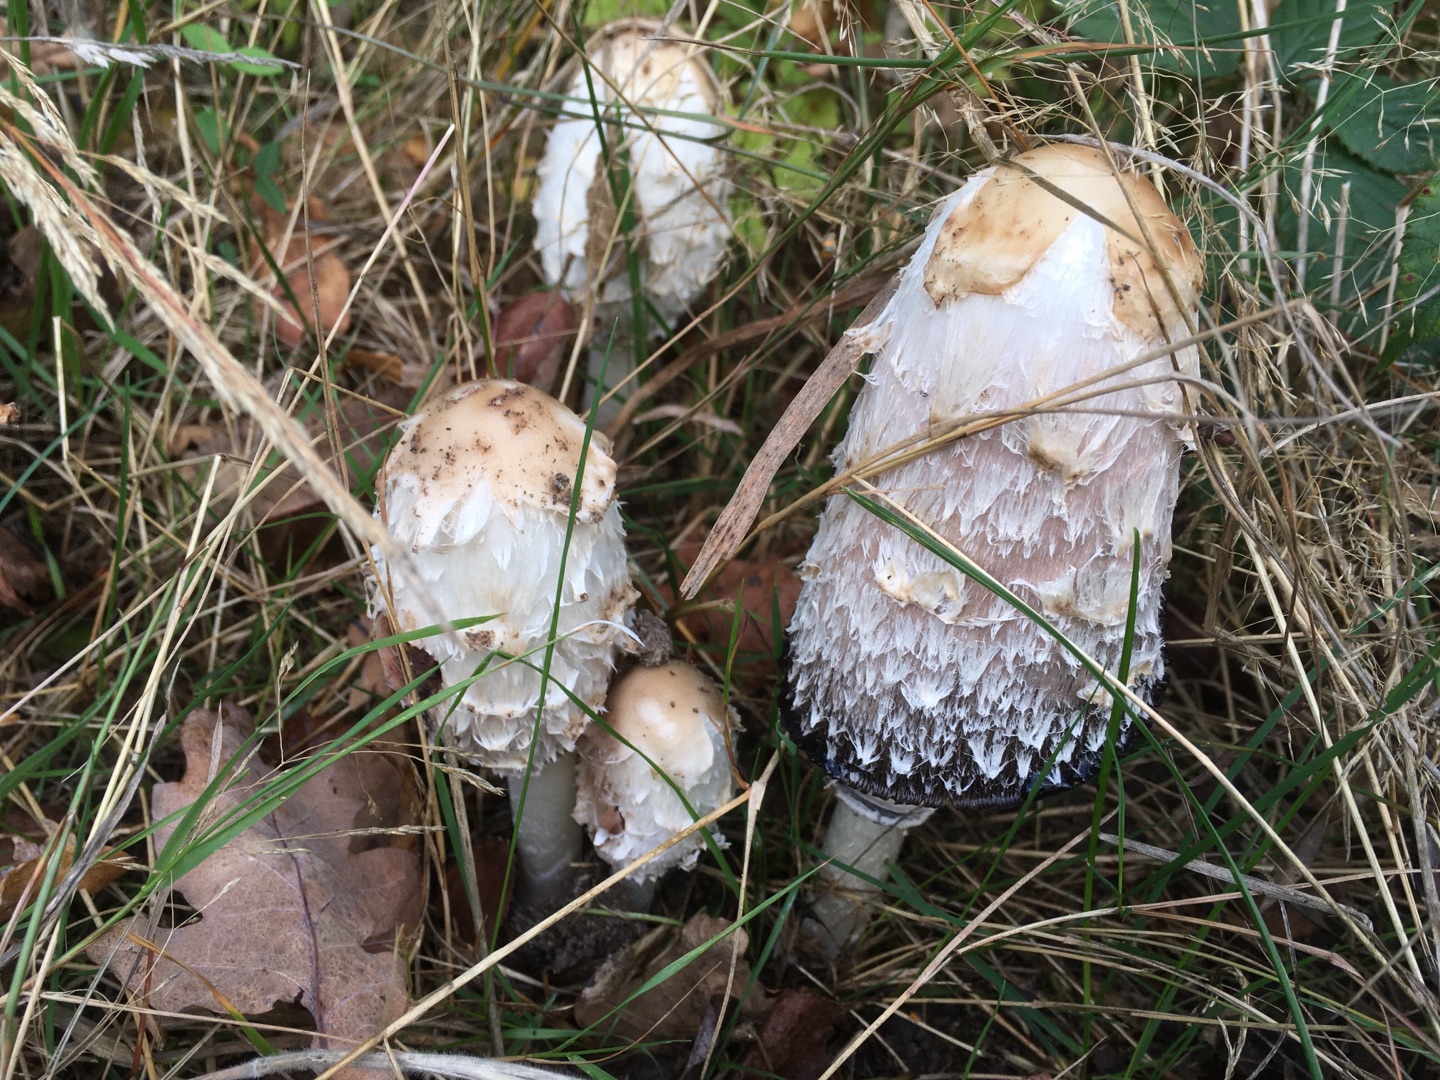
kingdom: Fungi
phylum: Basidiomycota
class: Agaricomycetes
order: Agaricales
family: Agaricaceae
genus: Coprinus
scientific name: Coprinus comatus
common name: Stor parykhat
